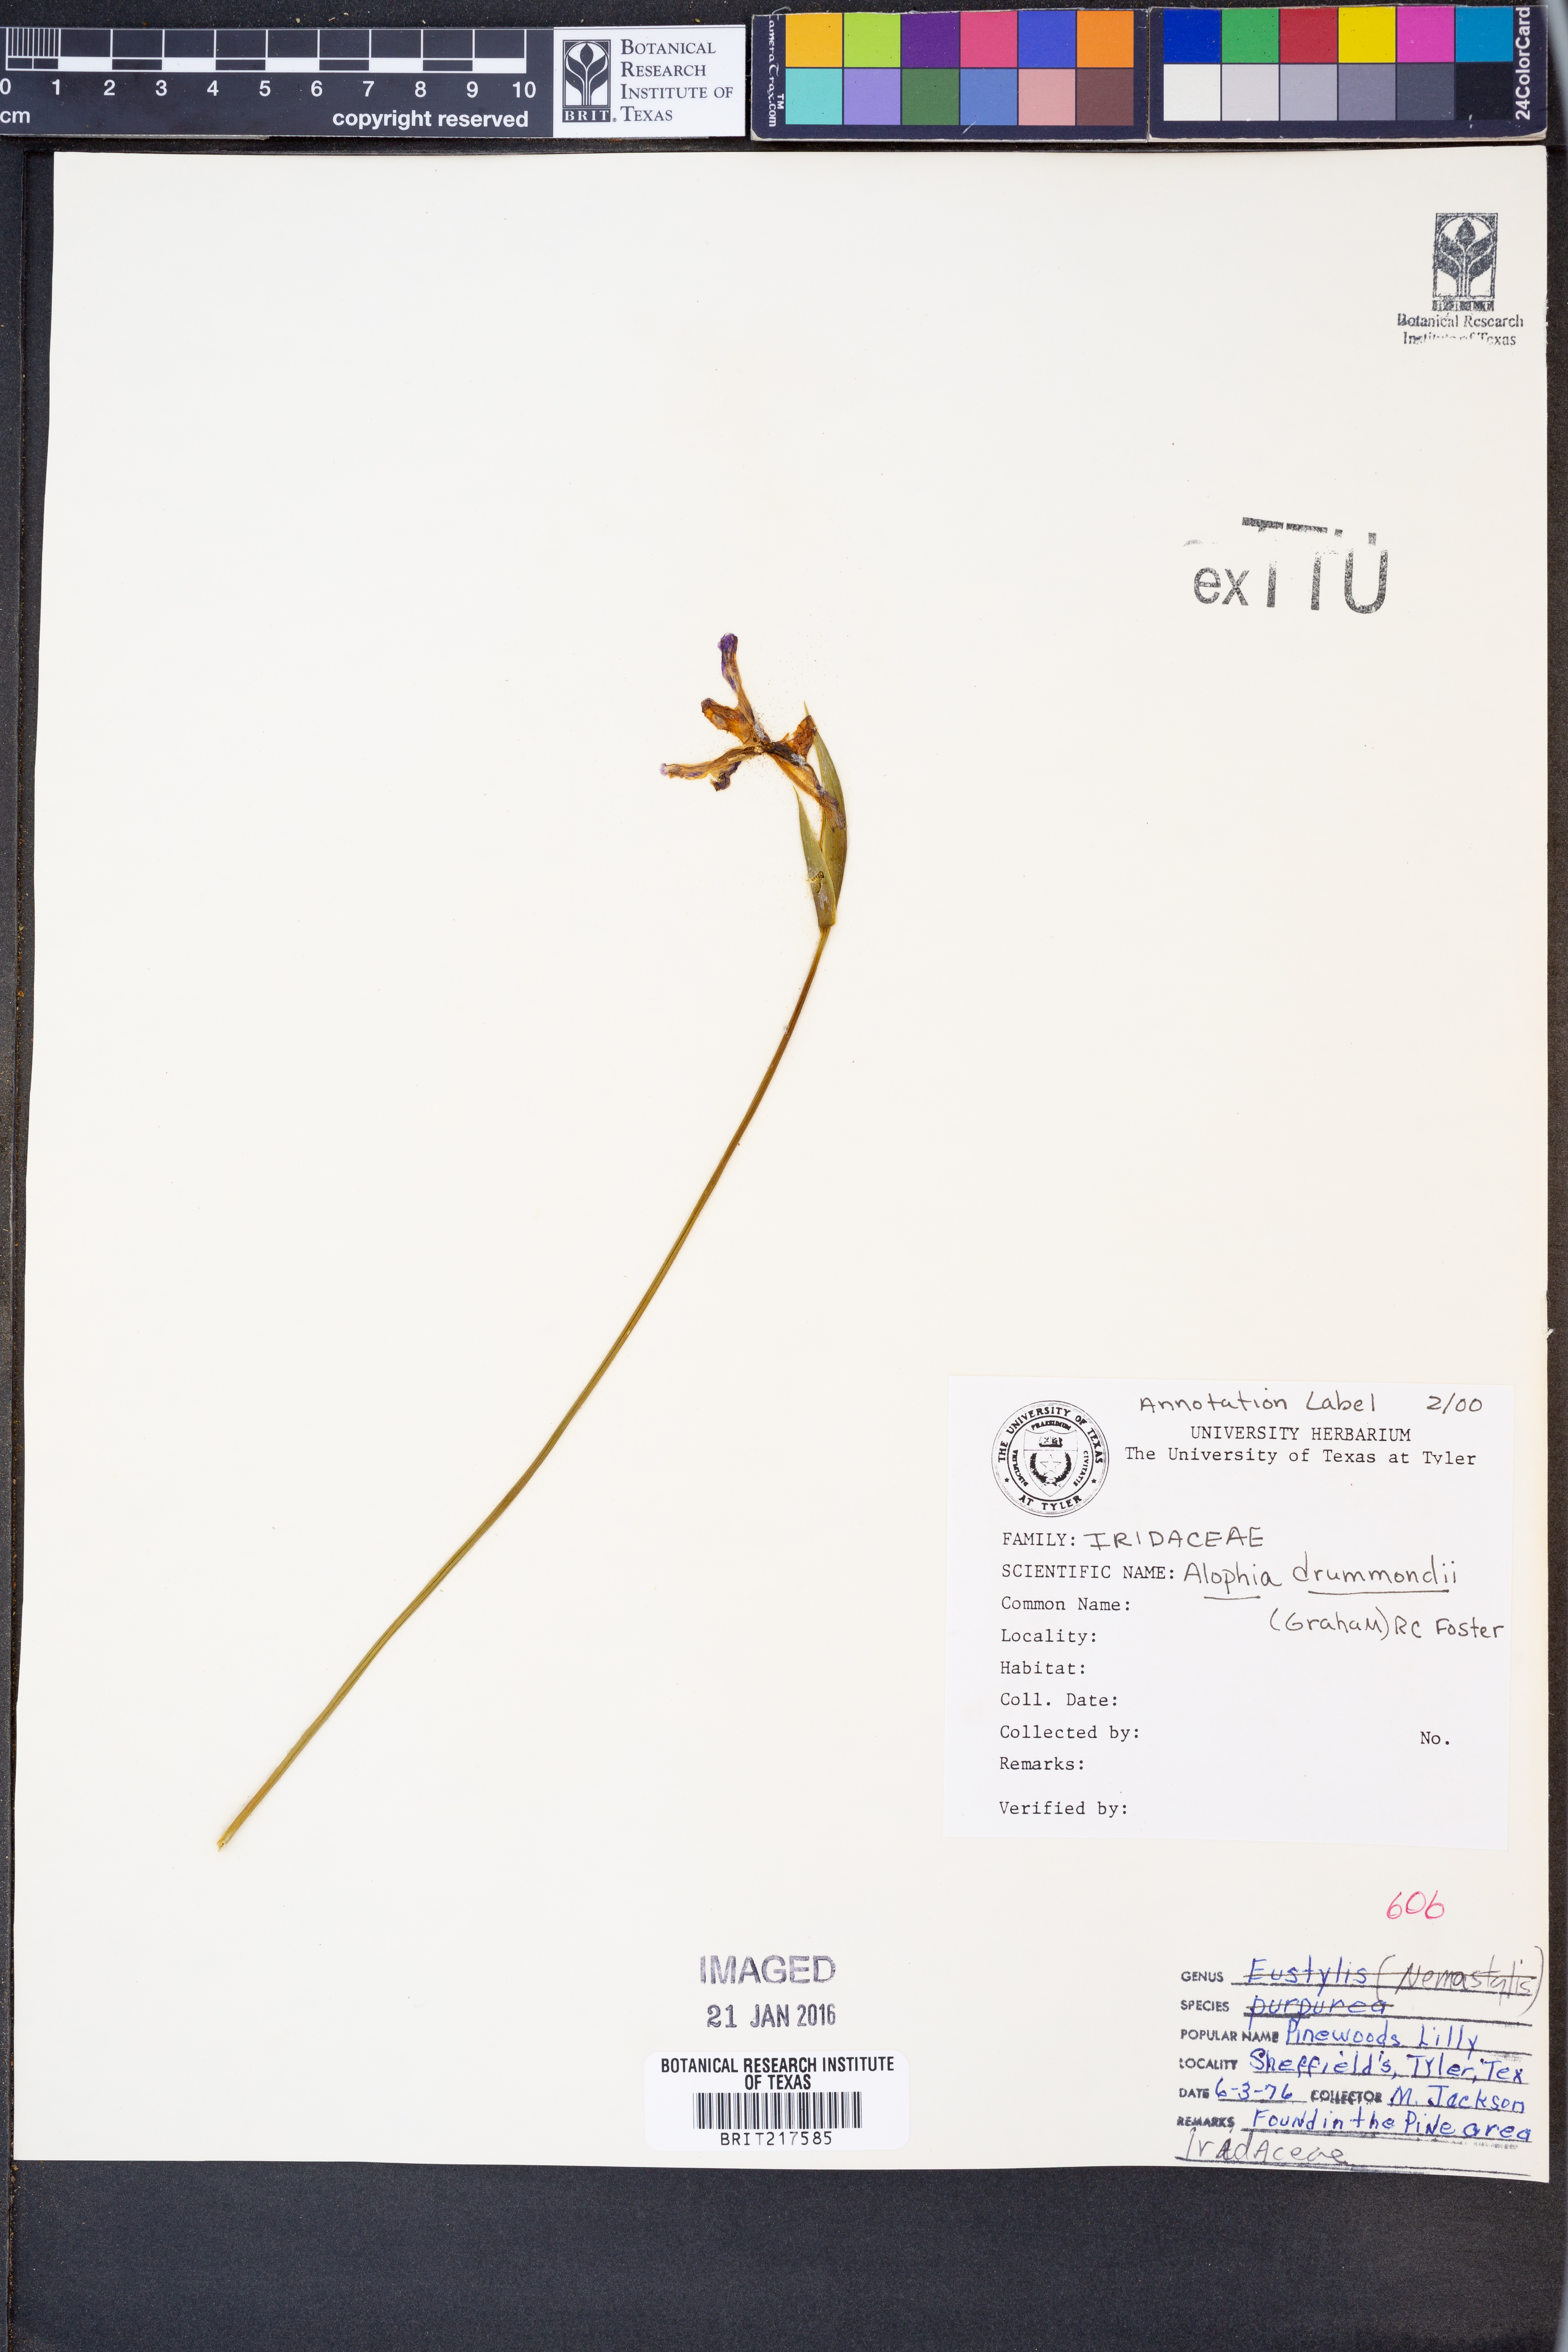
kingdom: Plantae
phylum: Tracheophyta
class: Liliopsida
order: Asparagales
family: Iridaceae
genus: Alophia
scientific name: Alophia drummondii
